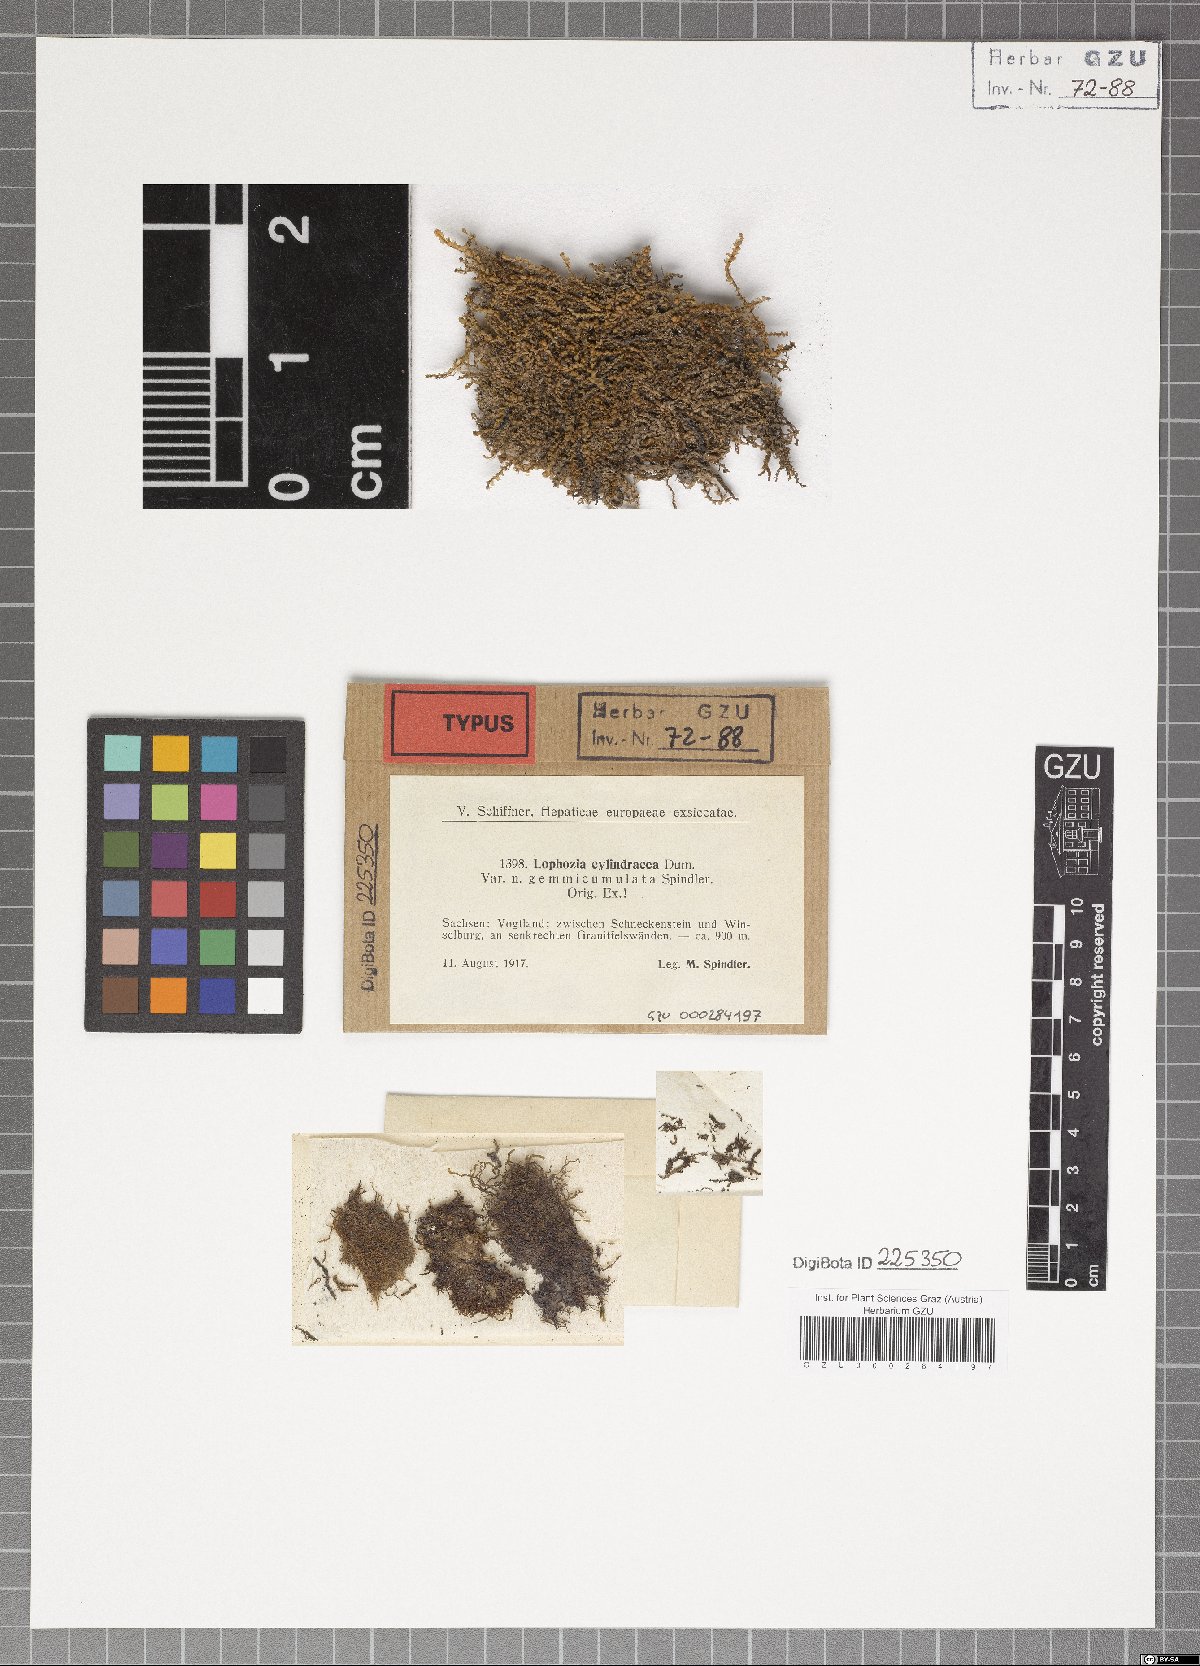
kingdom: Plantae
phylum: Marchantiophyta
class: Jungermanniopsida
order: Jungermanniales
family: Lophoziaceae
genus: Lophoziopsis
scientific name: Lophoziopsis excisa
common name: Cut notchwort
